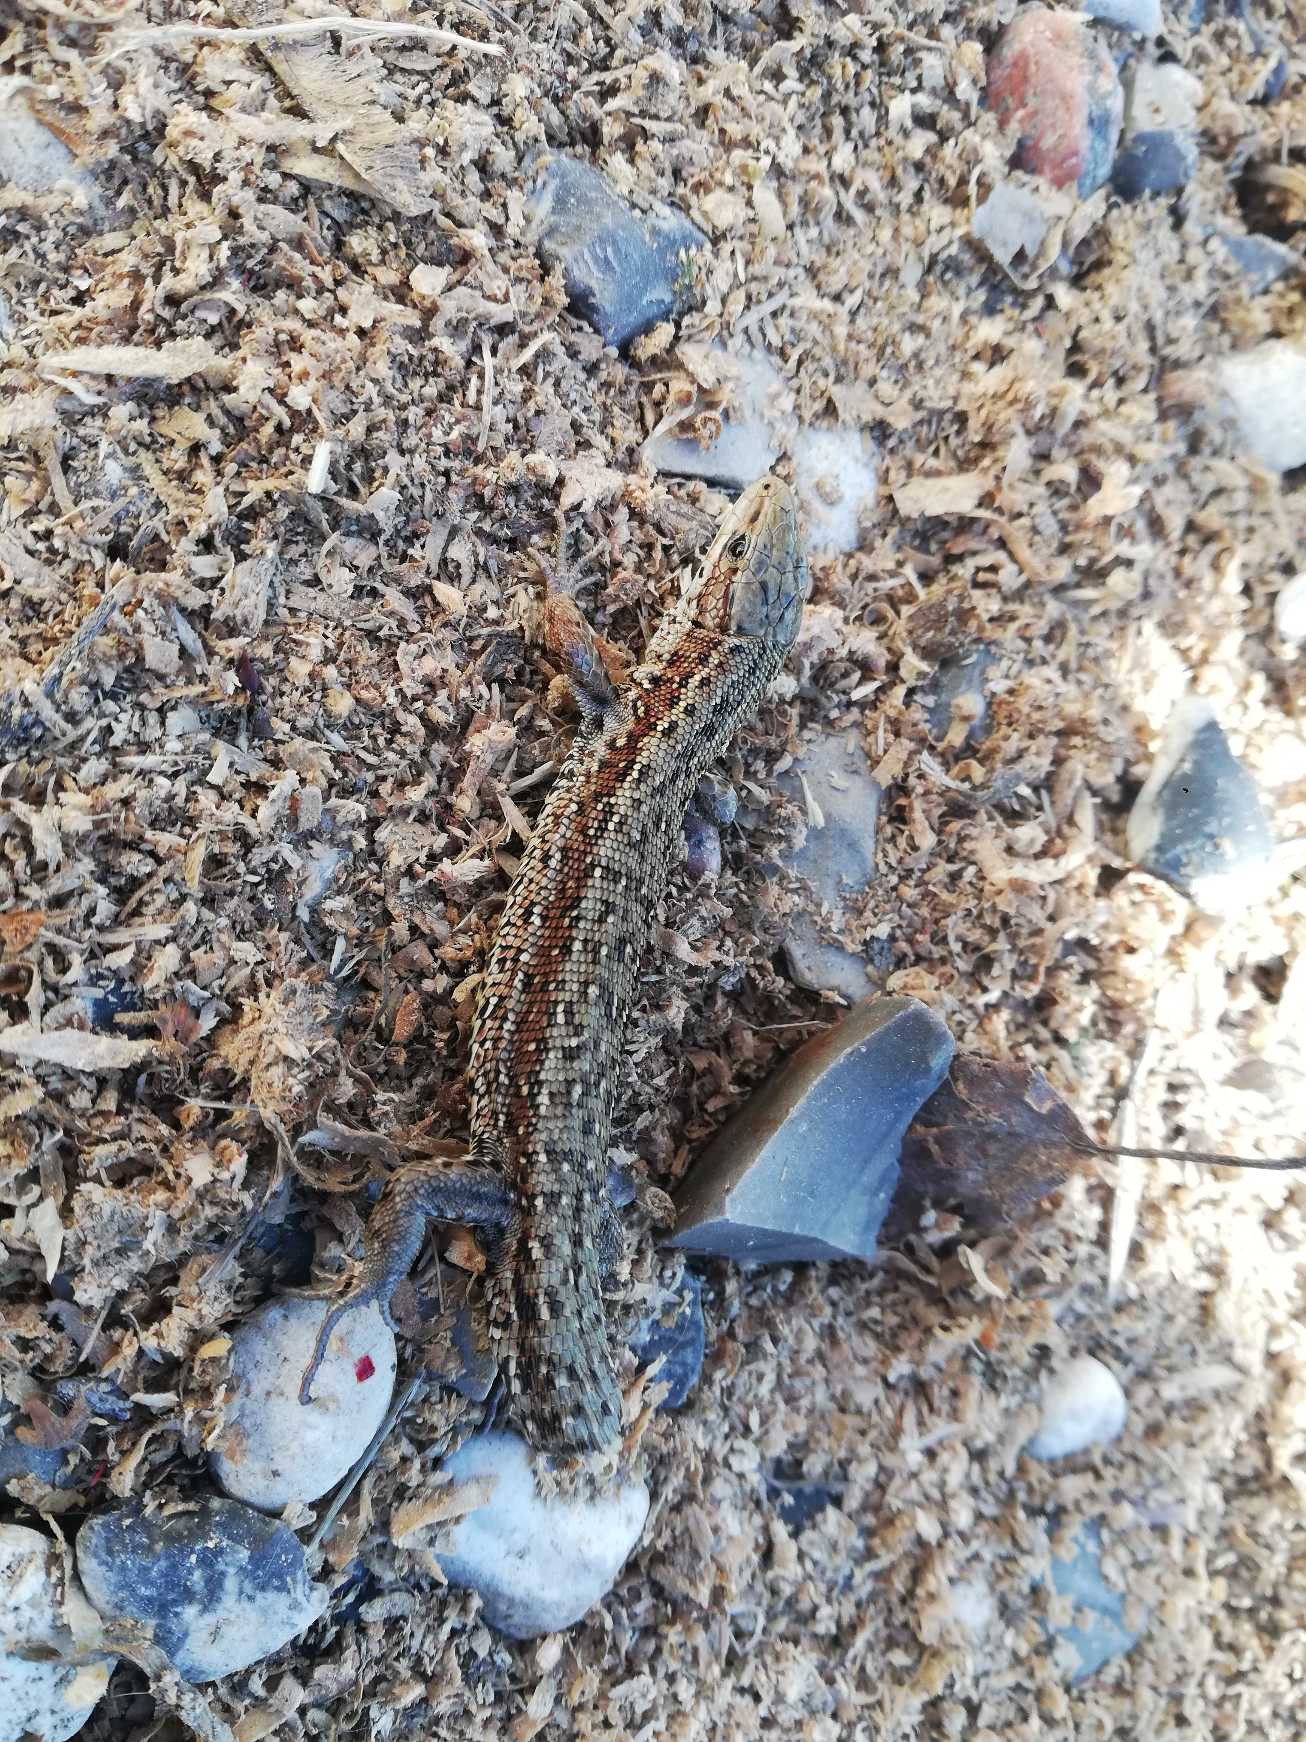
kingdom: Animalia
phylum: Chordata
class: Squamata
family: Lacertidae
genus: Zootoca
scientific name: Zootoca vivipara
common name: Skovfirben
